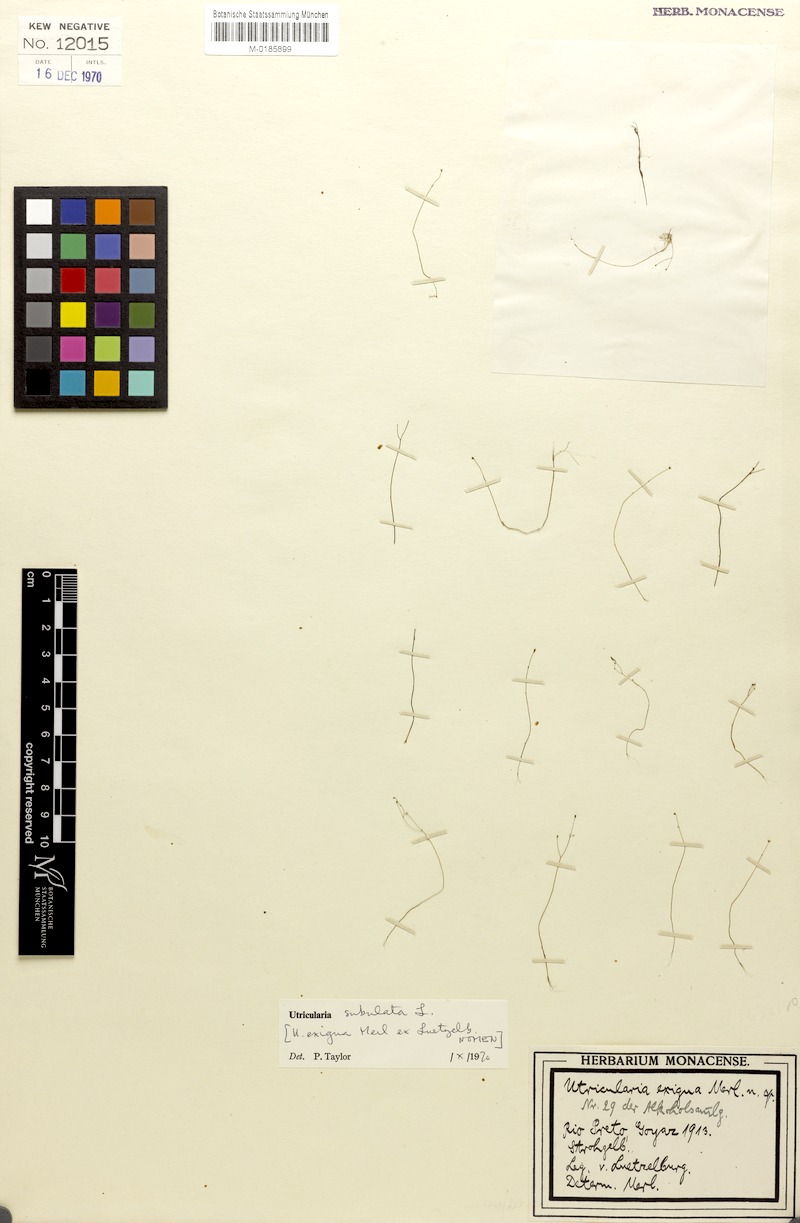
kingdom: Plantae
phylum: Tracheophyta
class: Magnoliopsida
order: Lamiales
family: Lentibulariaceae
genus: Utricularia
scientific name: Utricularia subulata
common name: Tiny bladderwort
